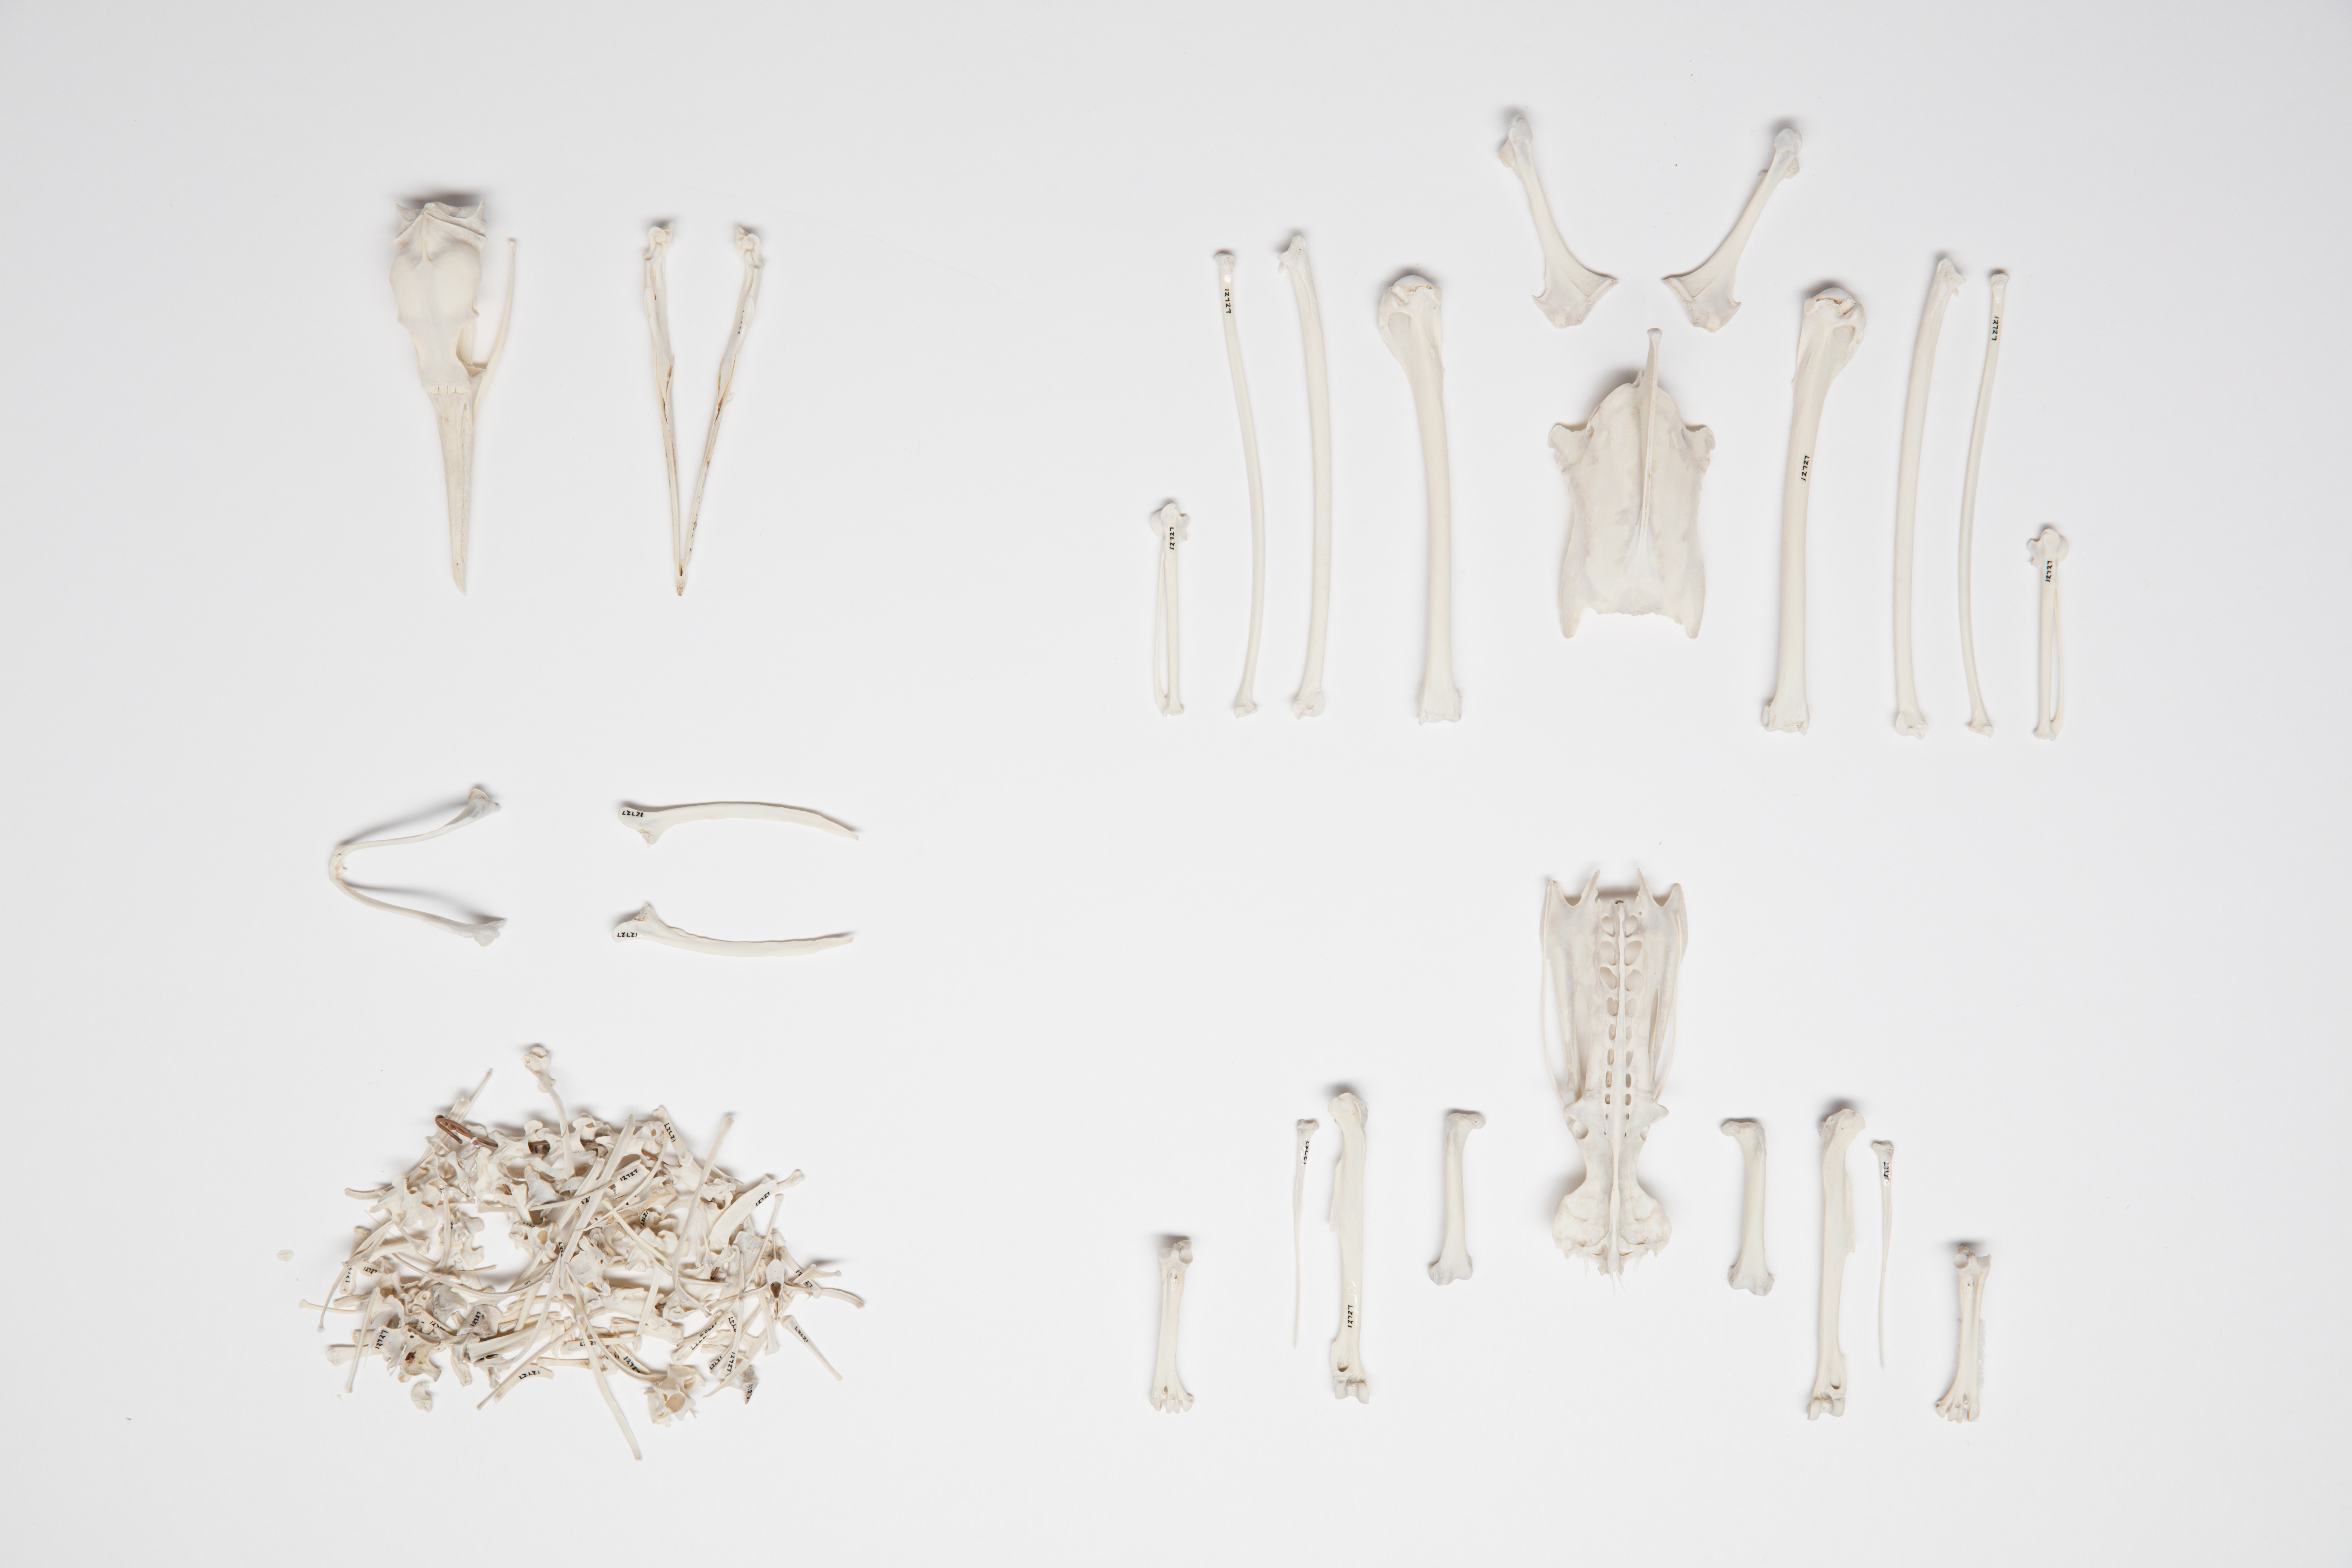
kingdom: Animalia
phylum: Chordata
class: Aves
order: Suliformes
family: Phalacrocoracidae
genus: Phalacrocorax
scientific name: Phalacrocorax sulcirostris
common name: Little black cormorant
